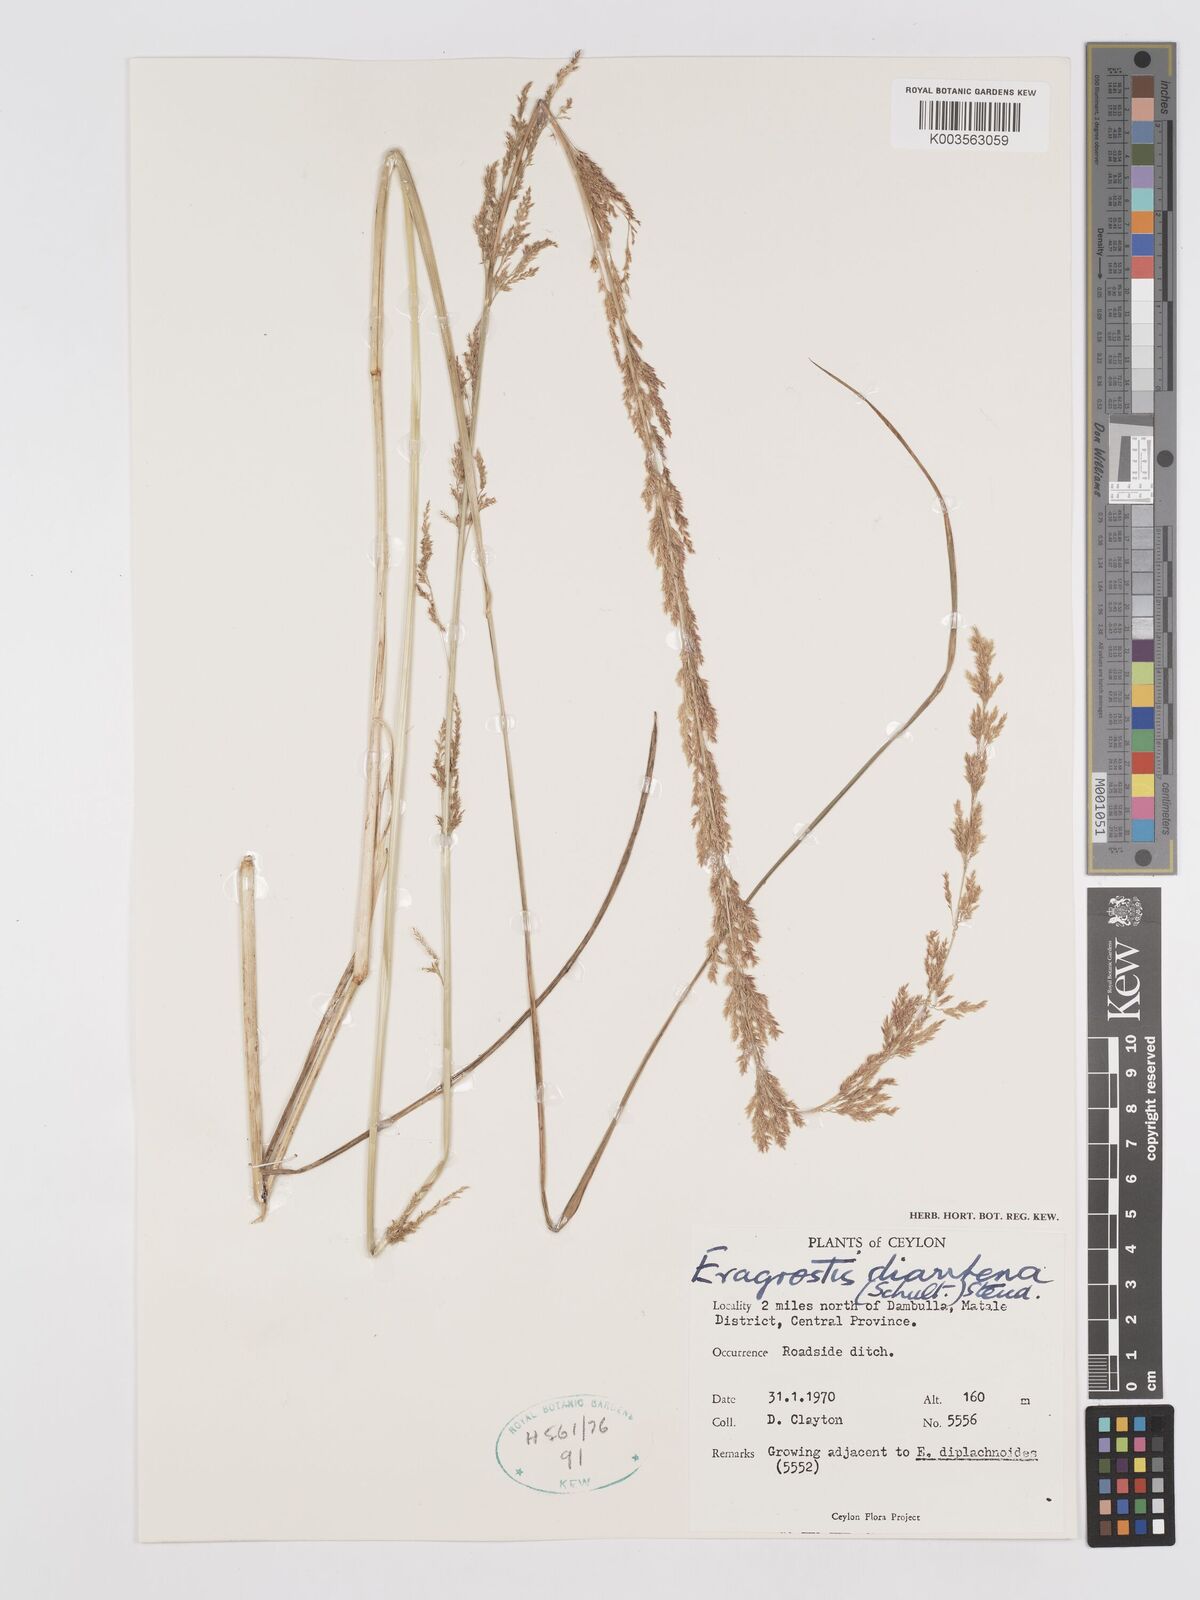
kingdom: Plantae
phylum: Tracheophyta
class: Liliopsida
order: Poales
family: Poaceae
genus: Eragrostis
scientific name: Eragrostis japonica
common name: Pond lovegrass
